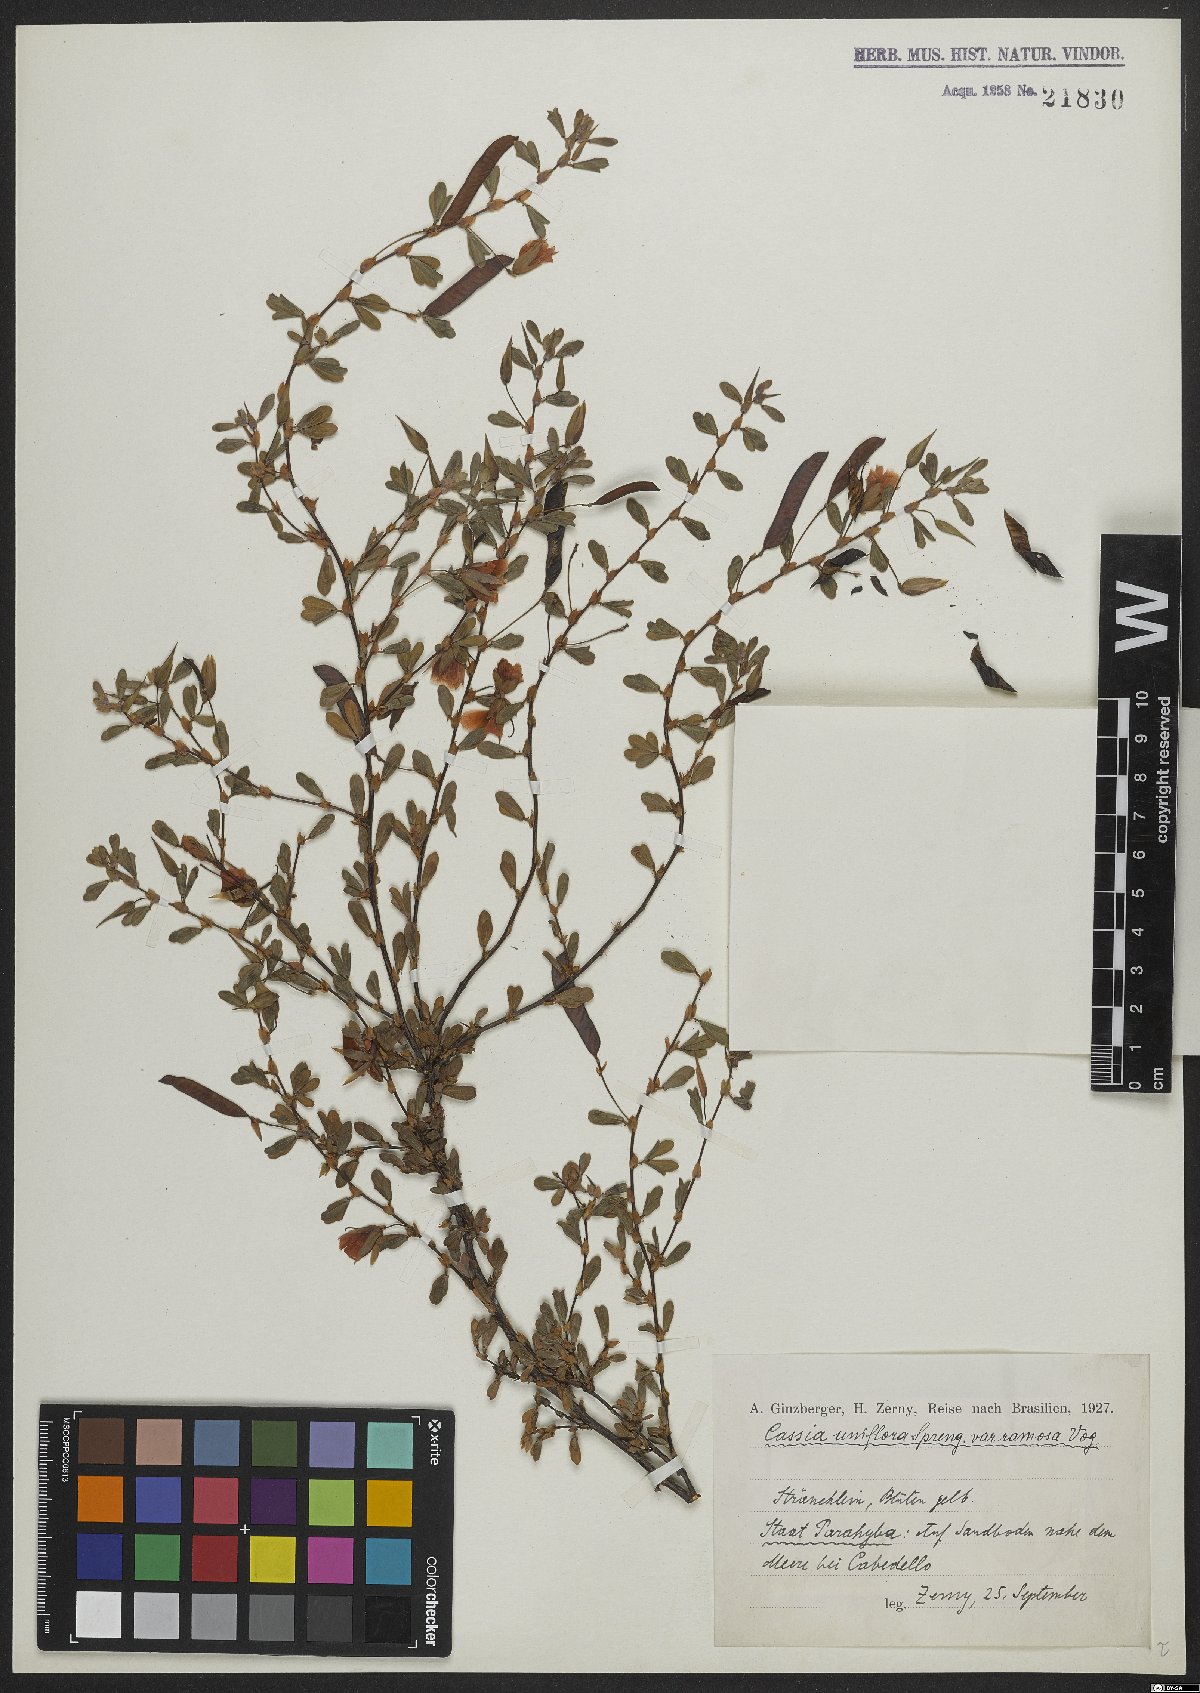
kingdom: Plantae
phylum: Tracheophyta
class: Magnoliopsida
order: Fabales
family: Fabaceae
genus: Senna
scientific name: Senna uniflora
